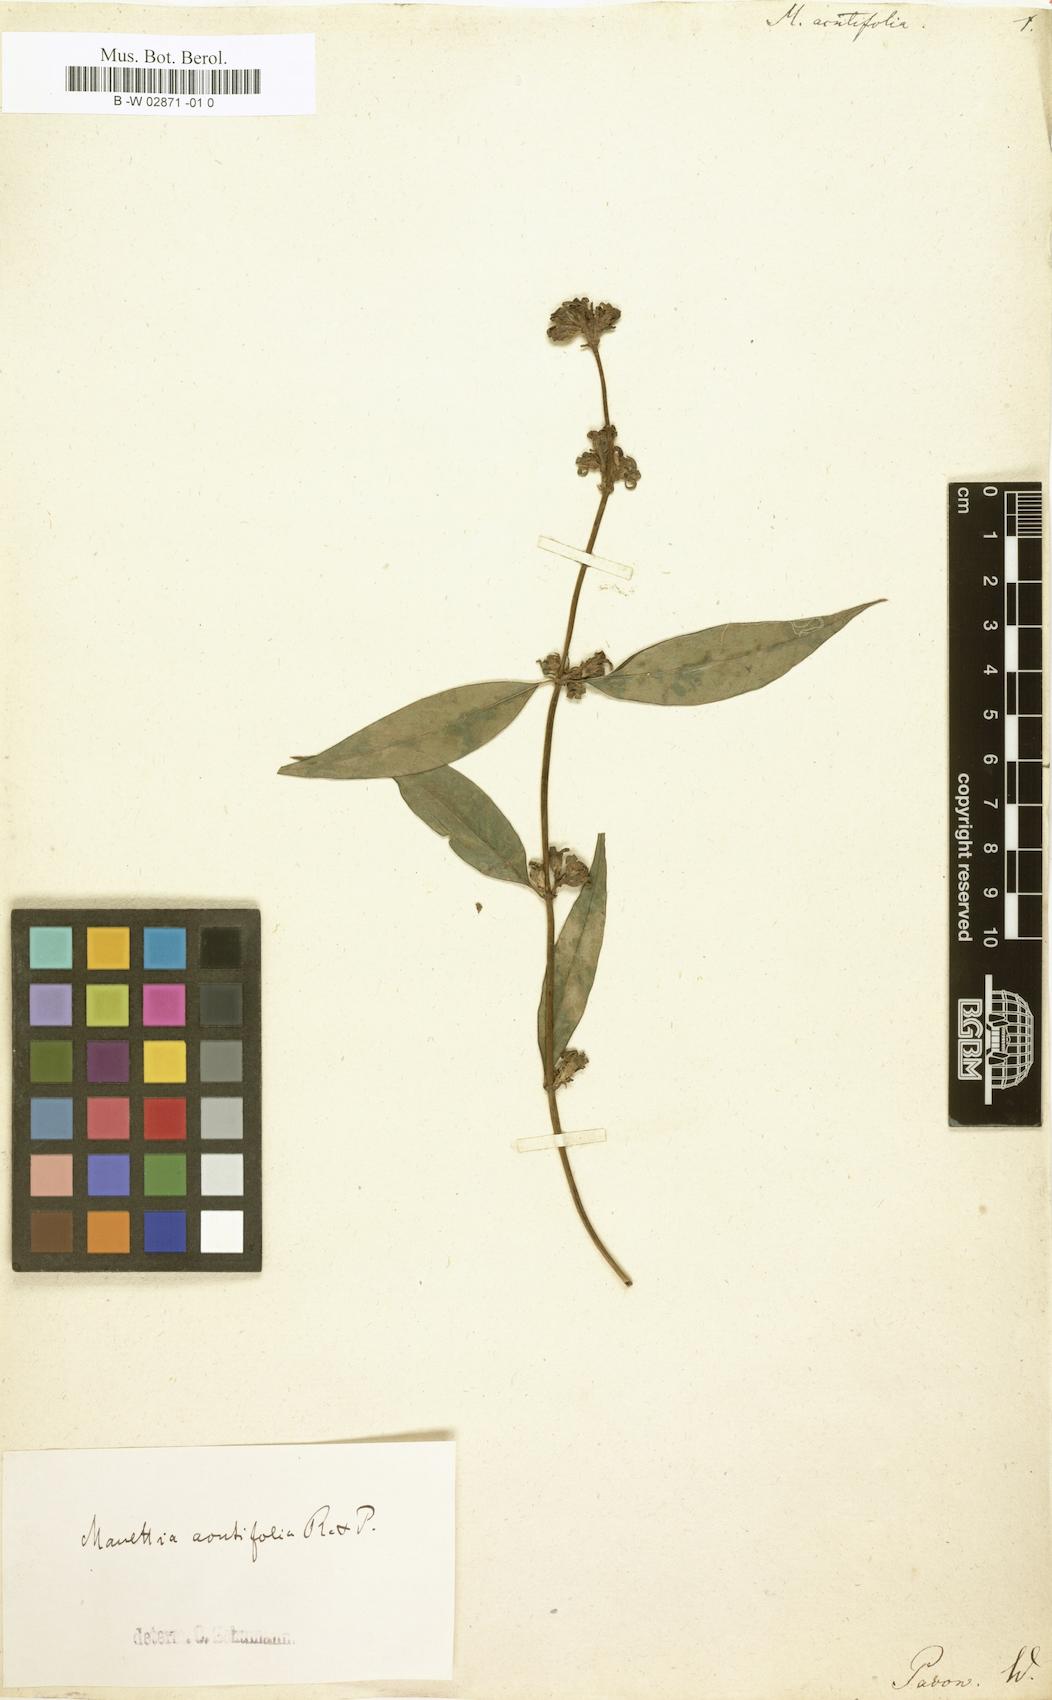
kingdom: Plantae
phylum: Tracheophyta
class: Magnoliopsida
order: Gentianales
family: Rubiaceae
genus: Manettia
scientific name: Manettia acutifolia
